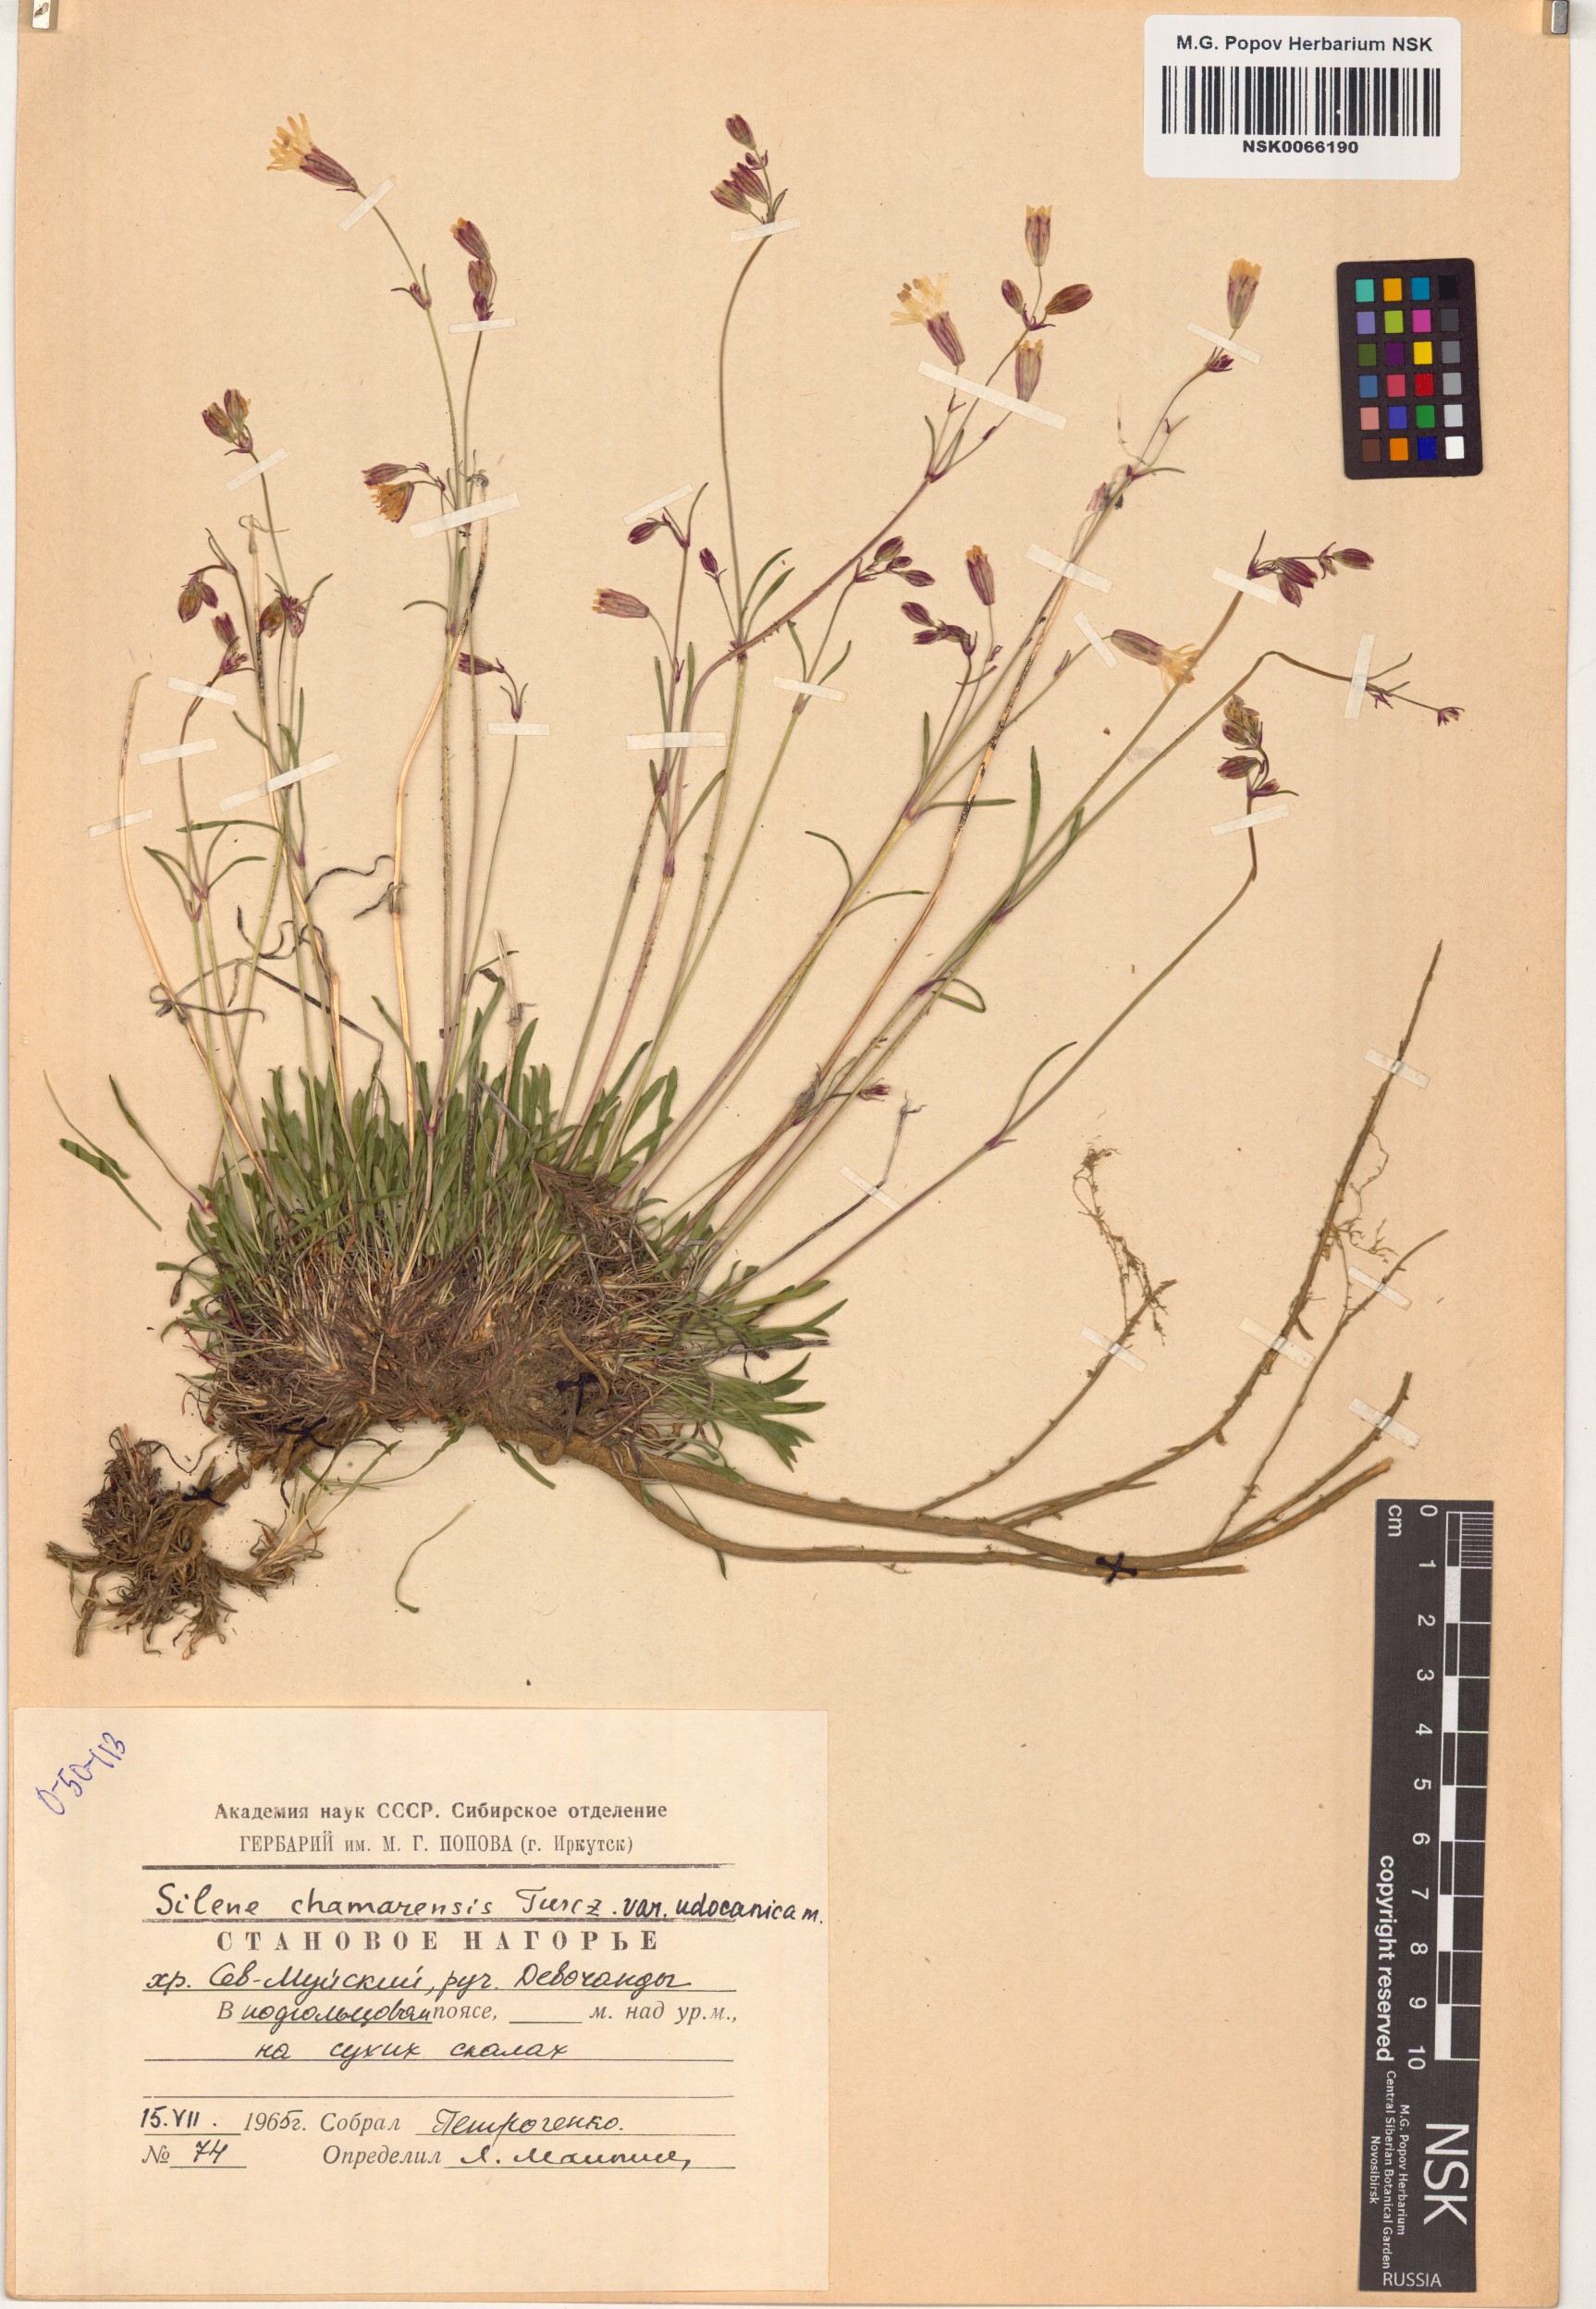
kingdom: Plantae
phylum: Tracheophyta
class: Magnoliopsida
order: Caryophyllales
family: Caryophyllaceae
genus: Silene
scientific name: Silene chamarensis
